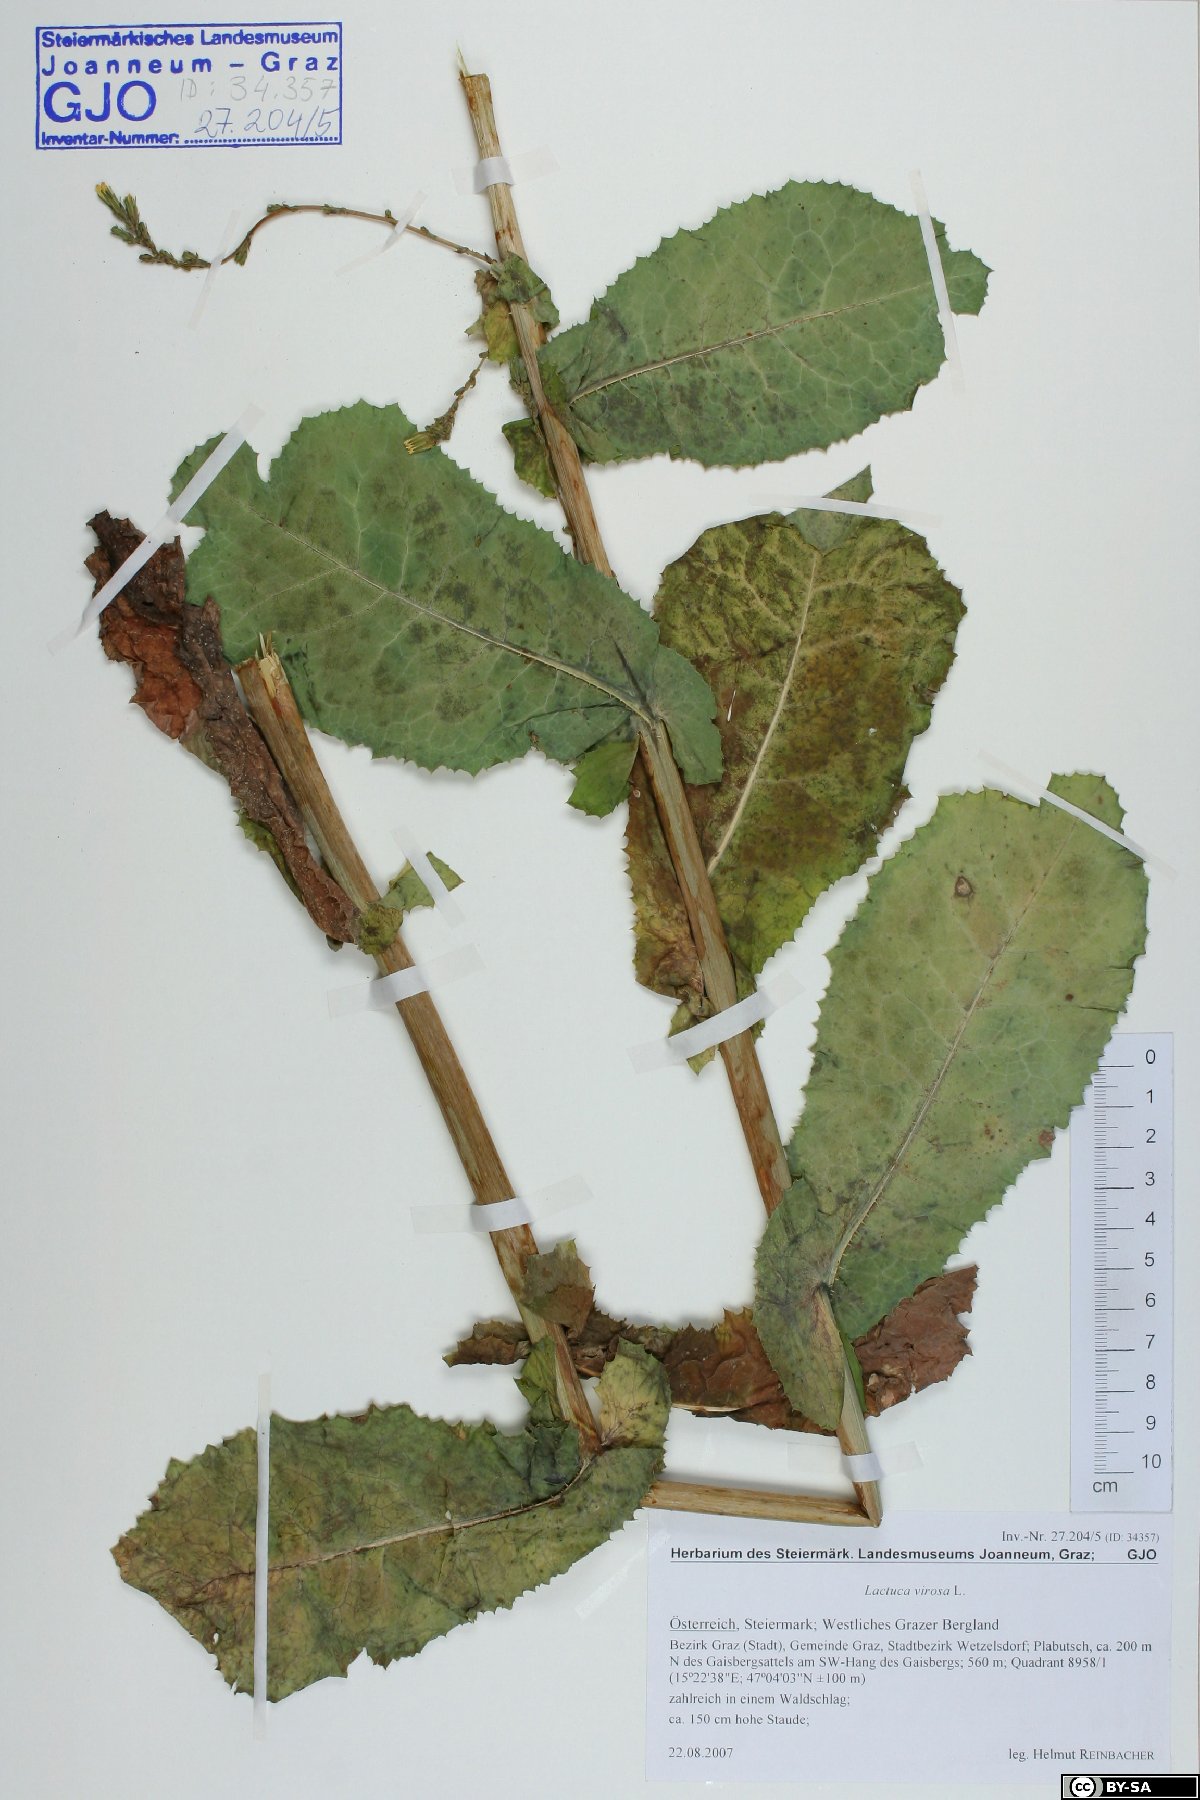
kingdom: Plantae
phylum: Tracheophyta
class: Magnoliopsida
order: Asterales
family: Asteraceae
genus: Lactuca
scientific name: Lactuca virosa
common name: Great lettuce
